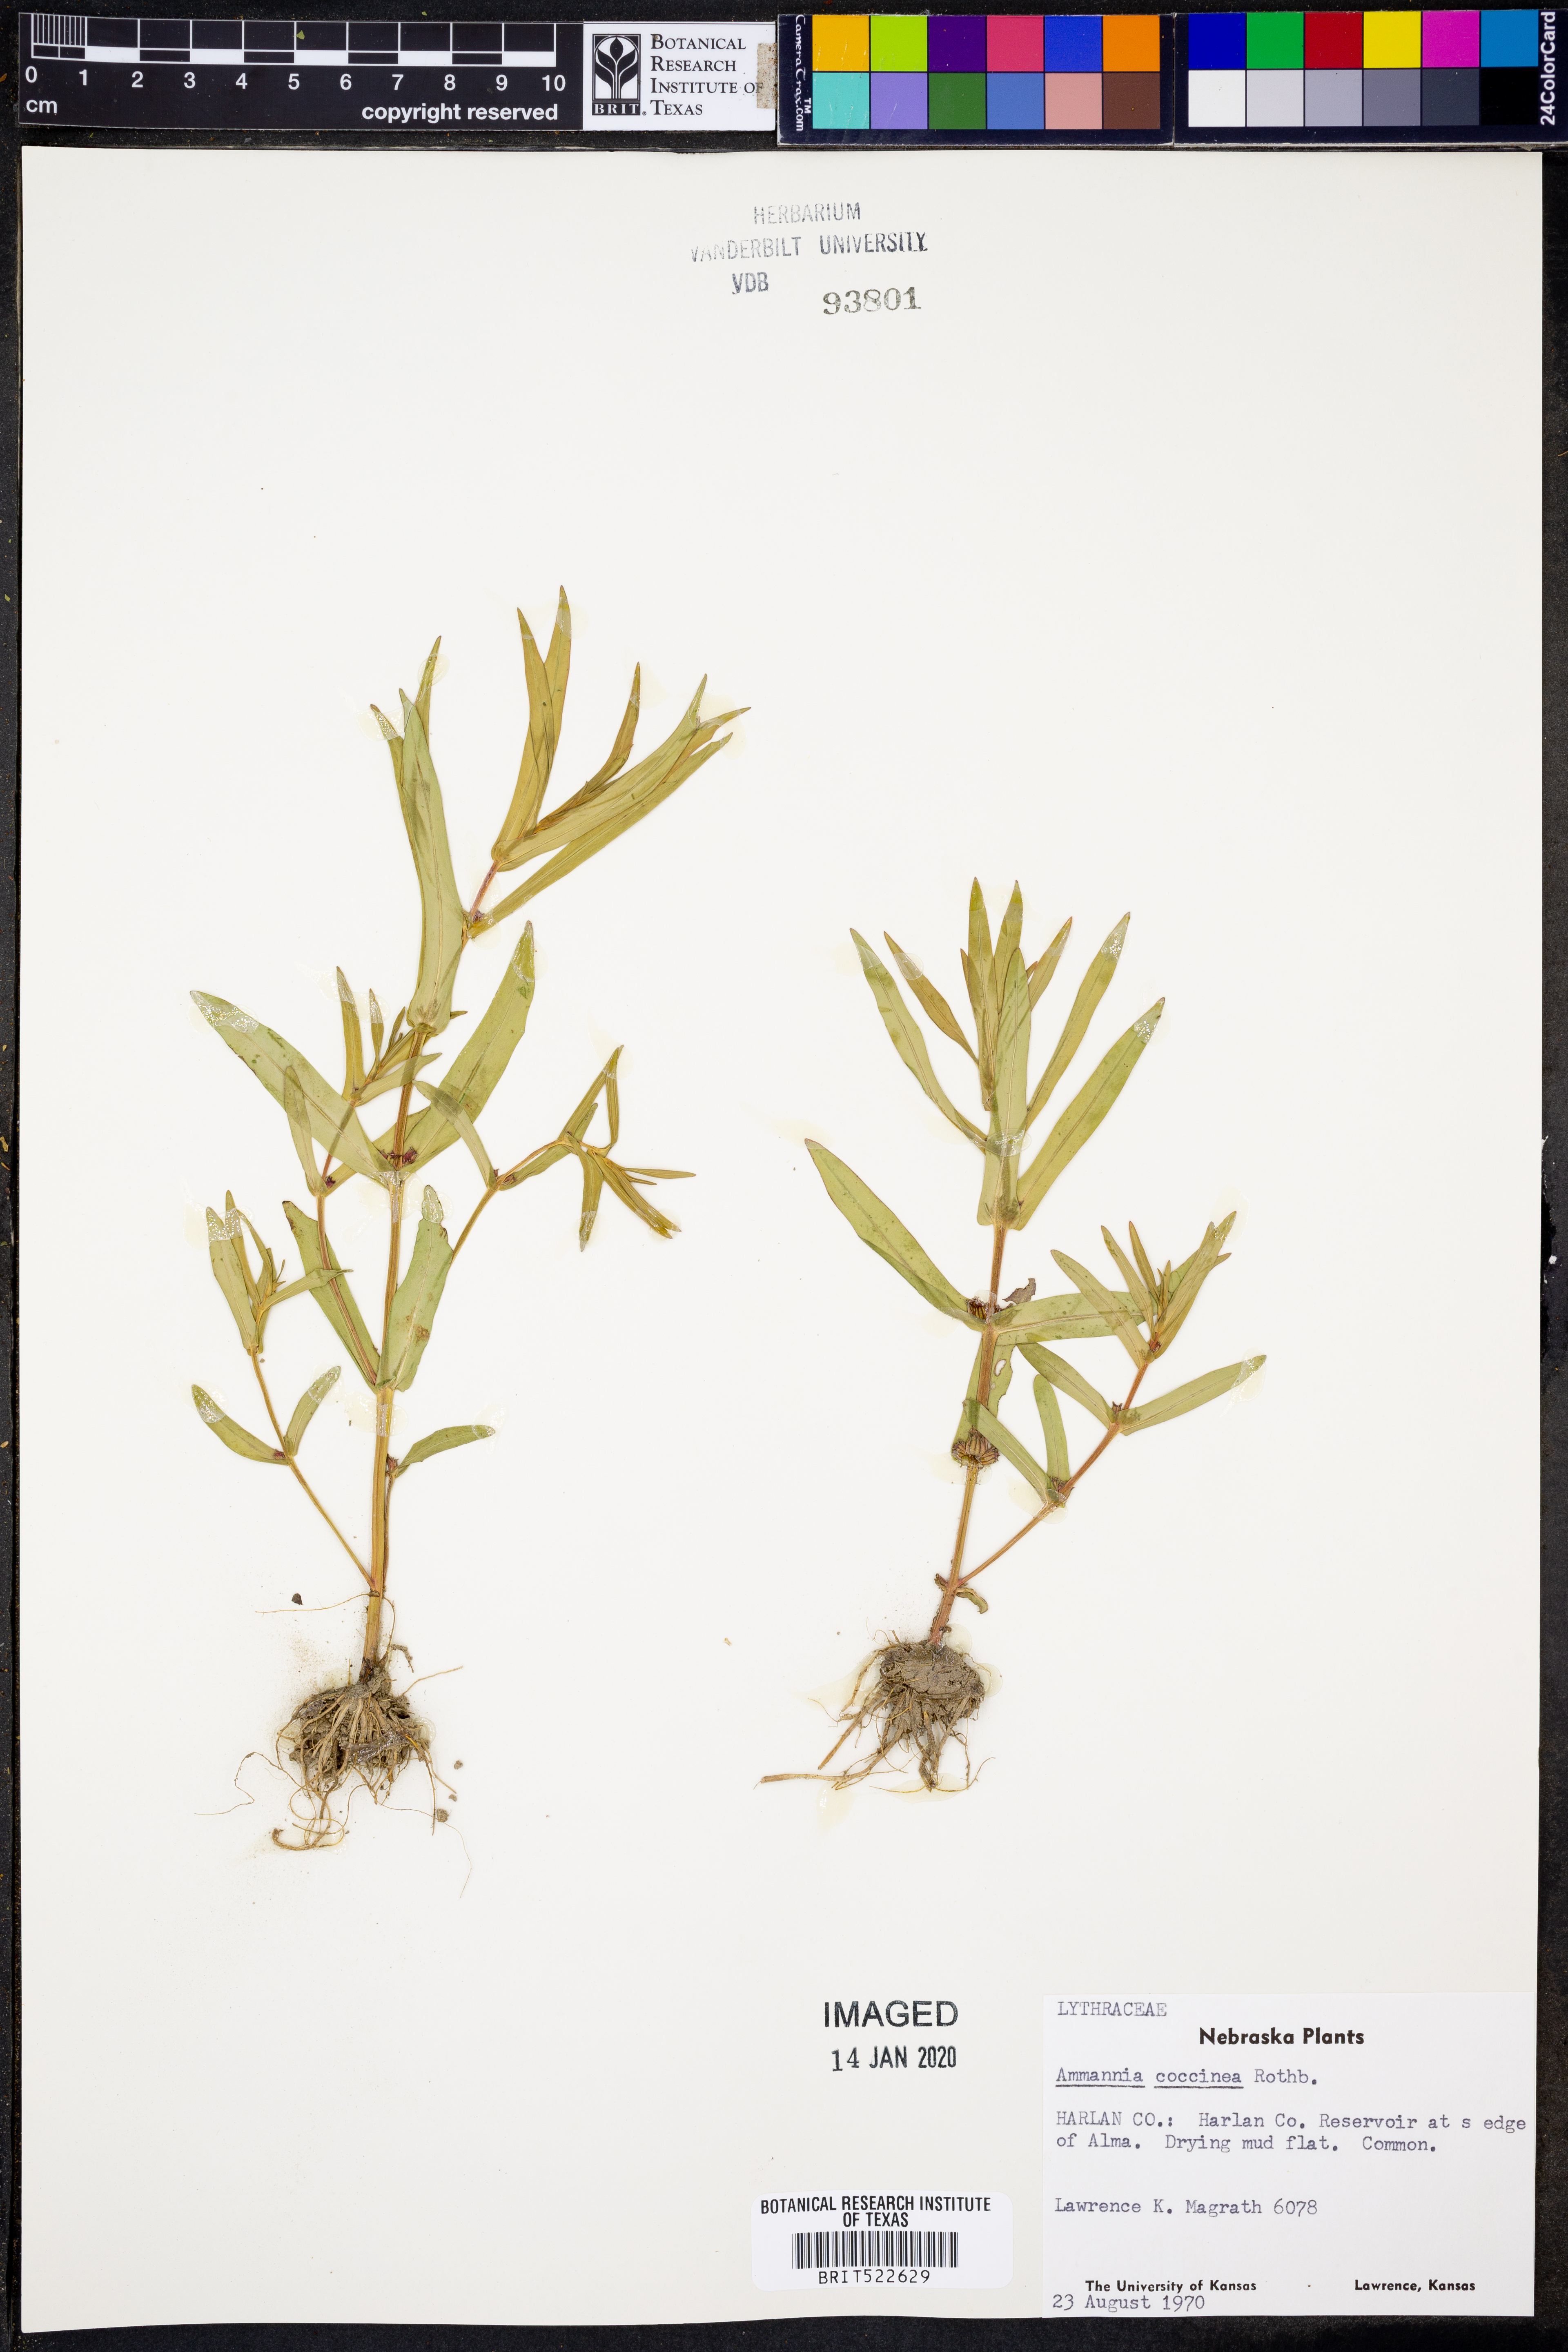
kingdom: Plantae
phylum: Tracheophyta
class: Magnoliopsida
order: Myrtales
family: Lythraceae
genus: Ammannia
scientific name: Ammannia coccinea
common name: Valley redstem
